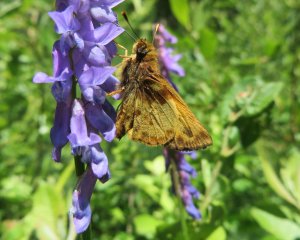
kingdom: Animalia
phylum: Arthropoda
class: Insecta
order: Lepidoptera
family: Hesperiidae
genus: Lon
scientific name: Lon zabulon
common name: Zabulon Skipper
